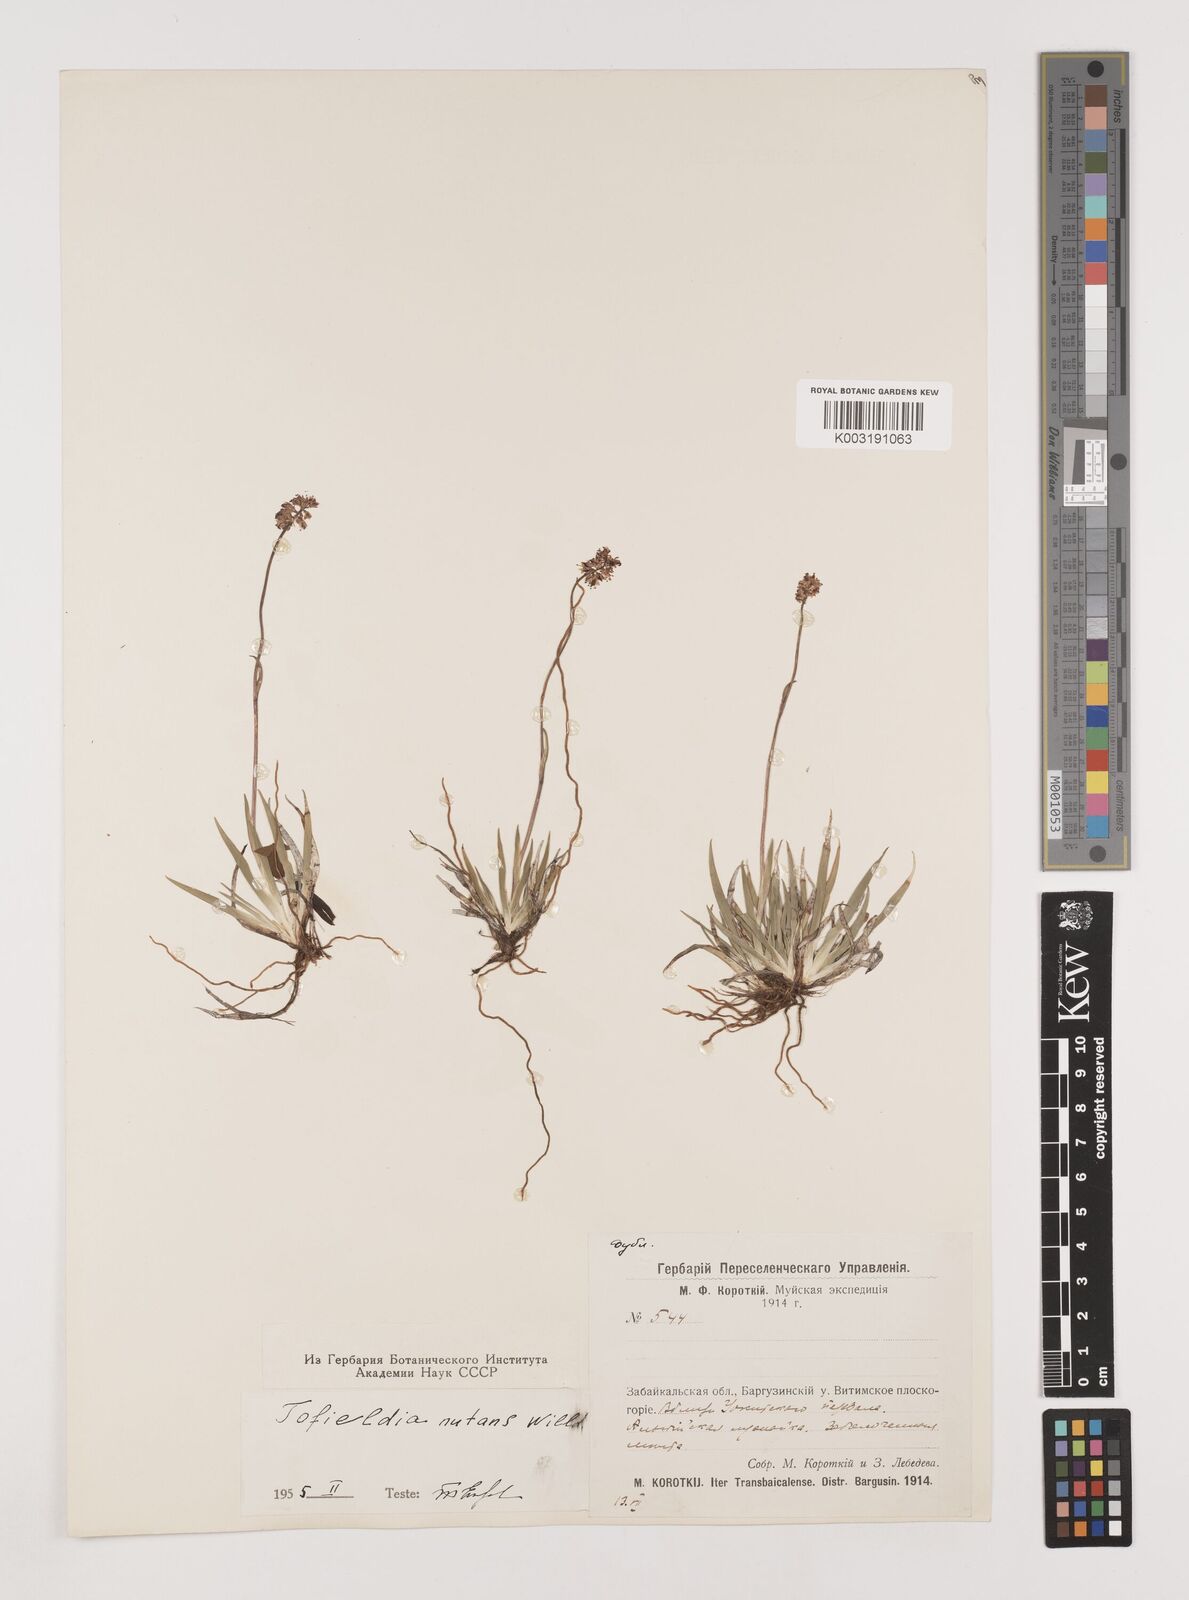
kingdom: Plantae
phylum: Tracheophyta
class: Liliopsida
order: Alismatales
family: Tofieldiaceae
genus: Tofieldia
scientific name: Tofieldia coccinea
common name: Northern false asphodel
